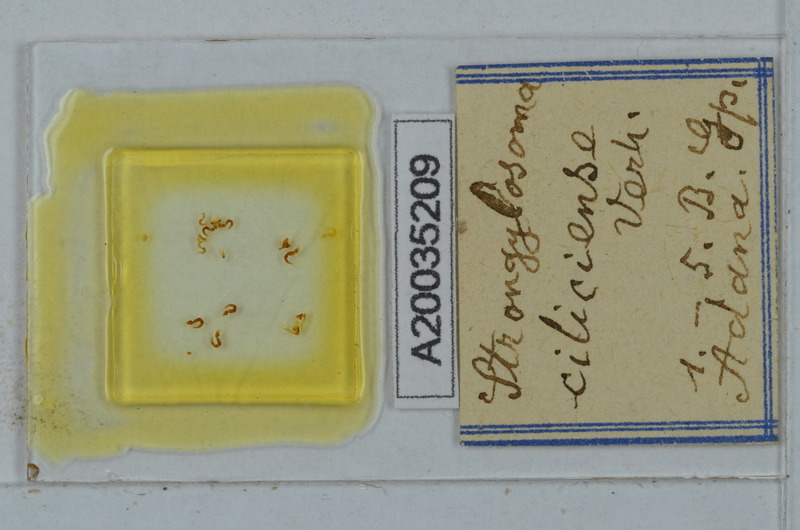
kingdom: Animalia
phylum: Arthropoda
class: Diplopoda
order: Polydesmida
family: Paradoxosomatidae
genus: Strongylosoma
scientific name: Strongylosoma cilliciense
